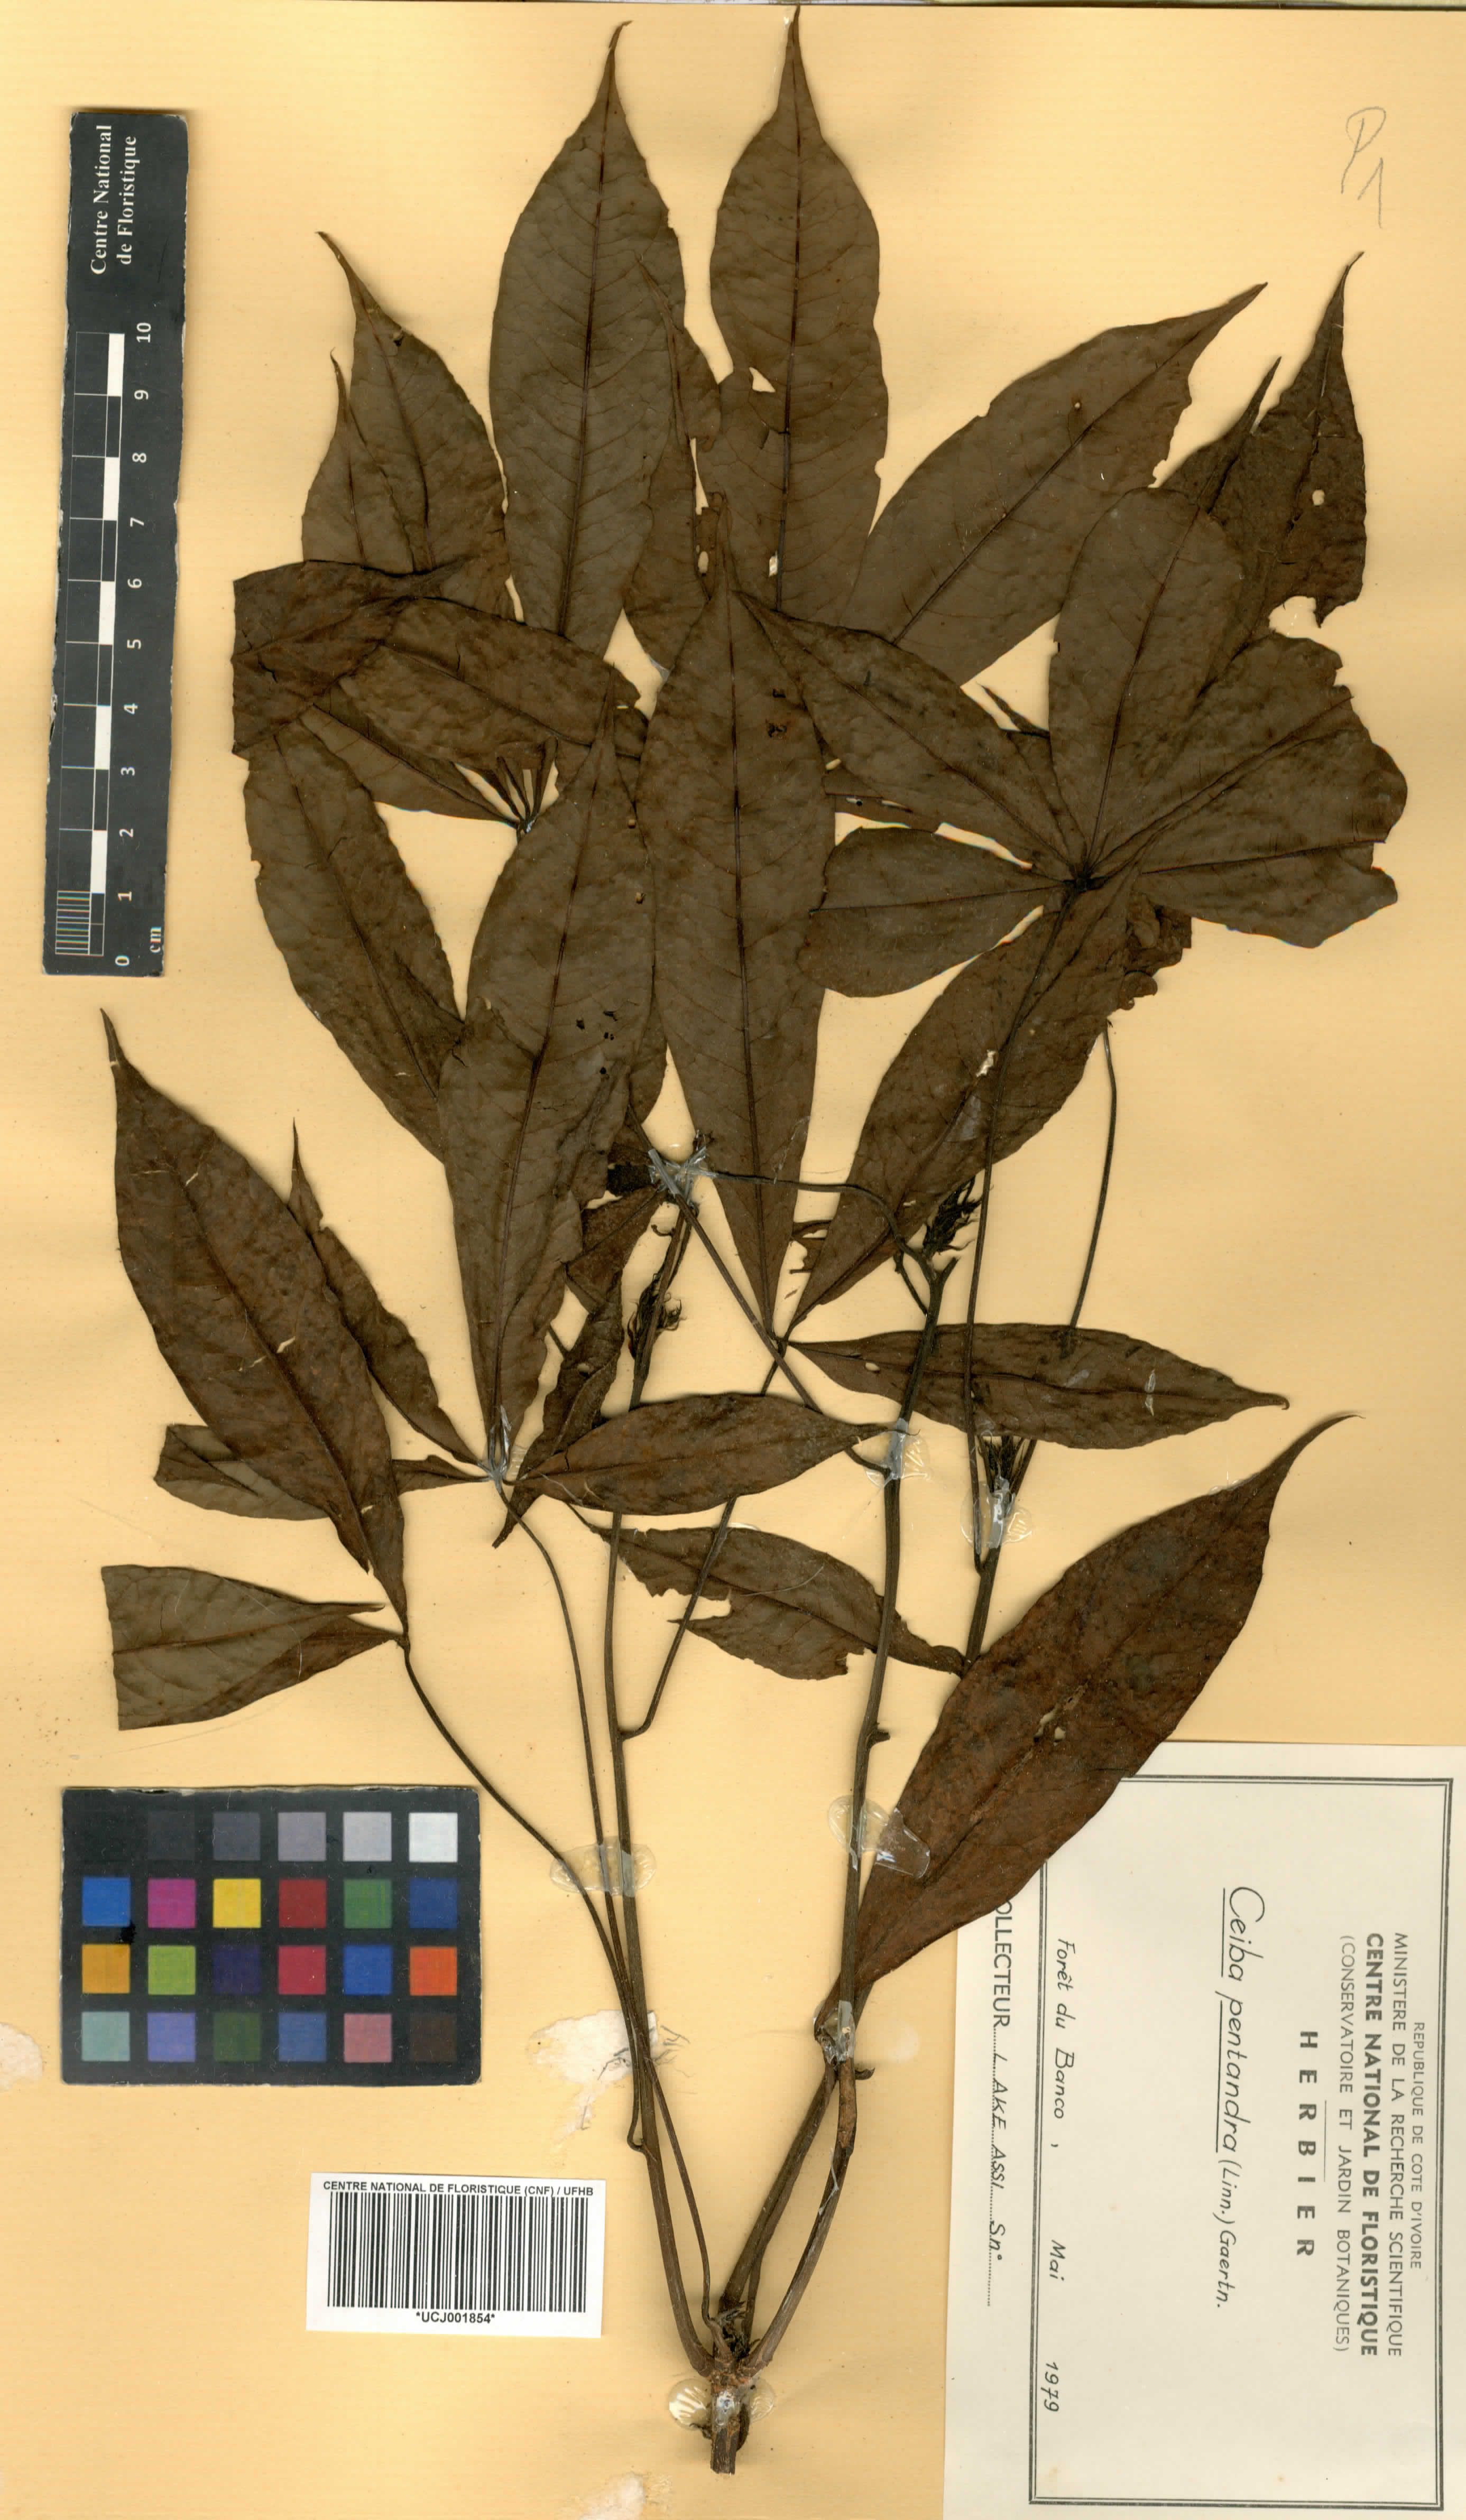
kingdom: Plantae
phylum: Tracheophyta
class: Magnoliopsida
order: Malvales
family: Malvaceae
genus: Ceiba
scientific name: Ceiba pentandra
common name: Kapok
